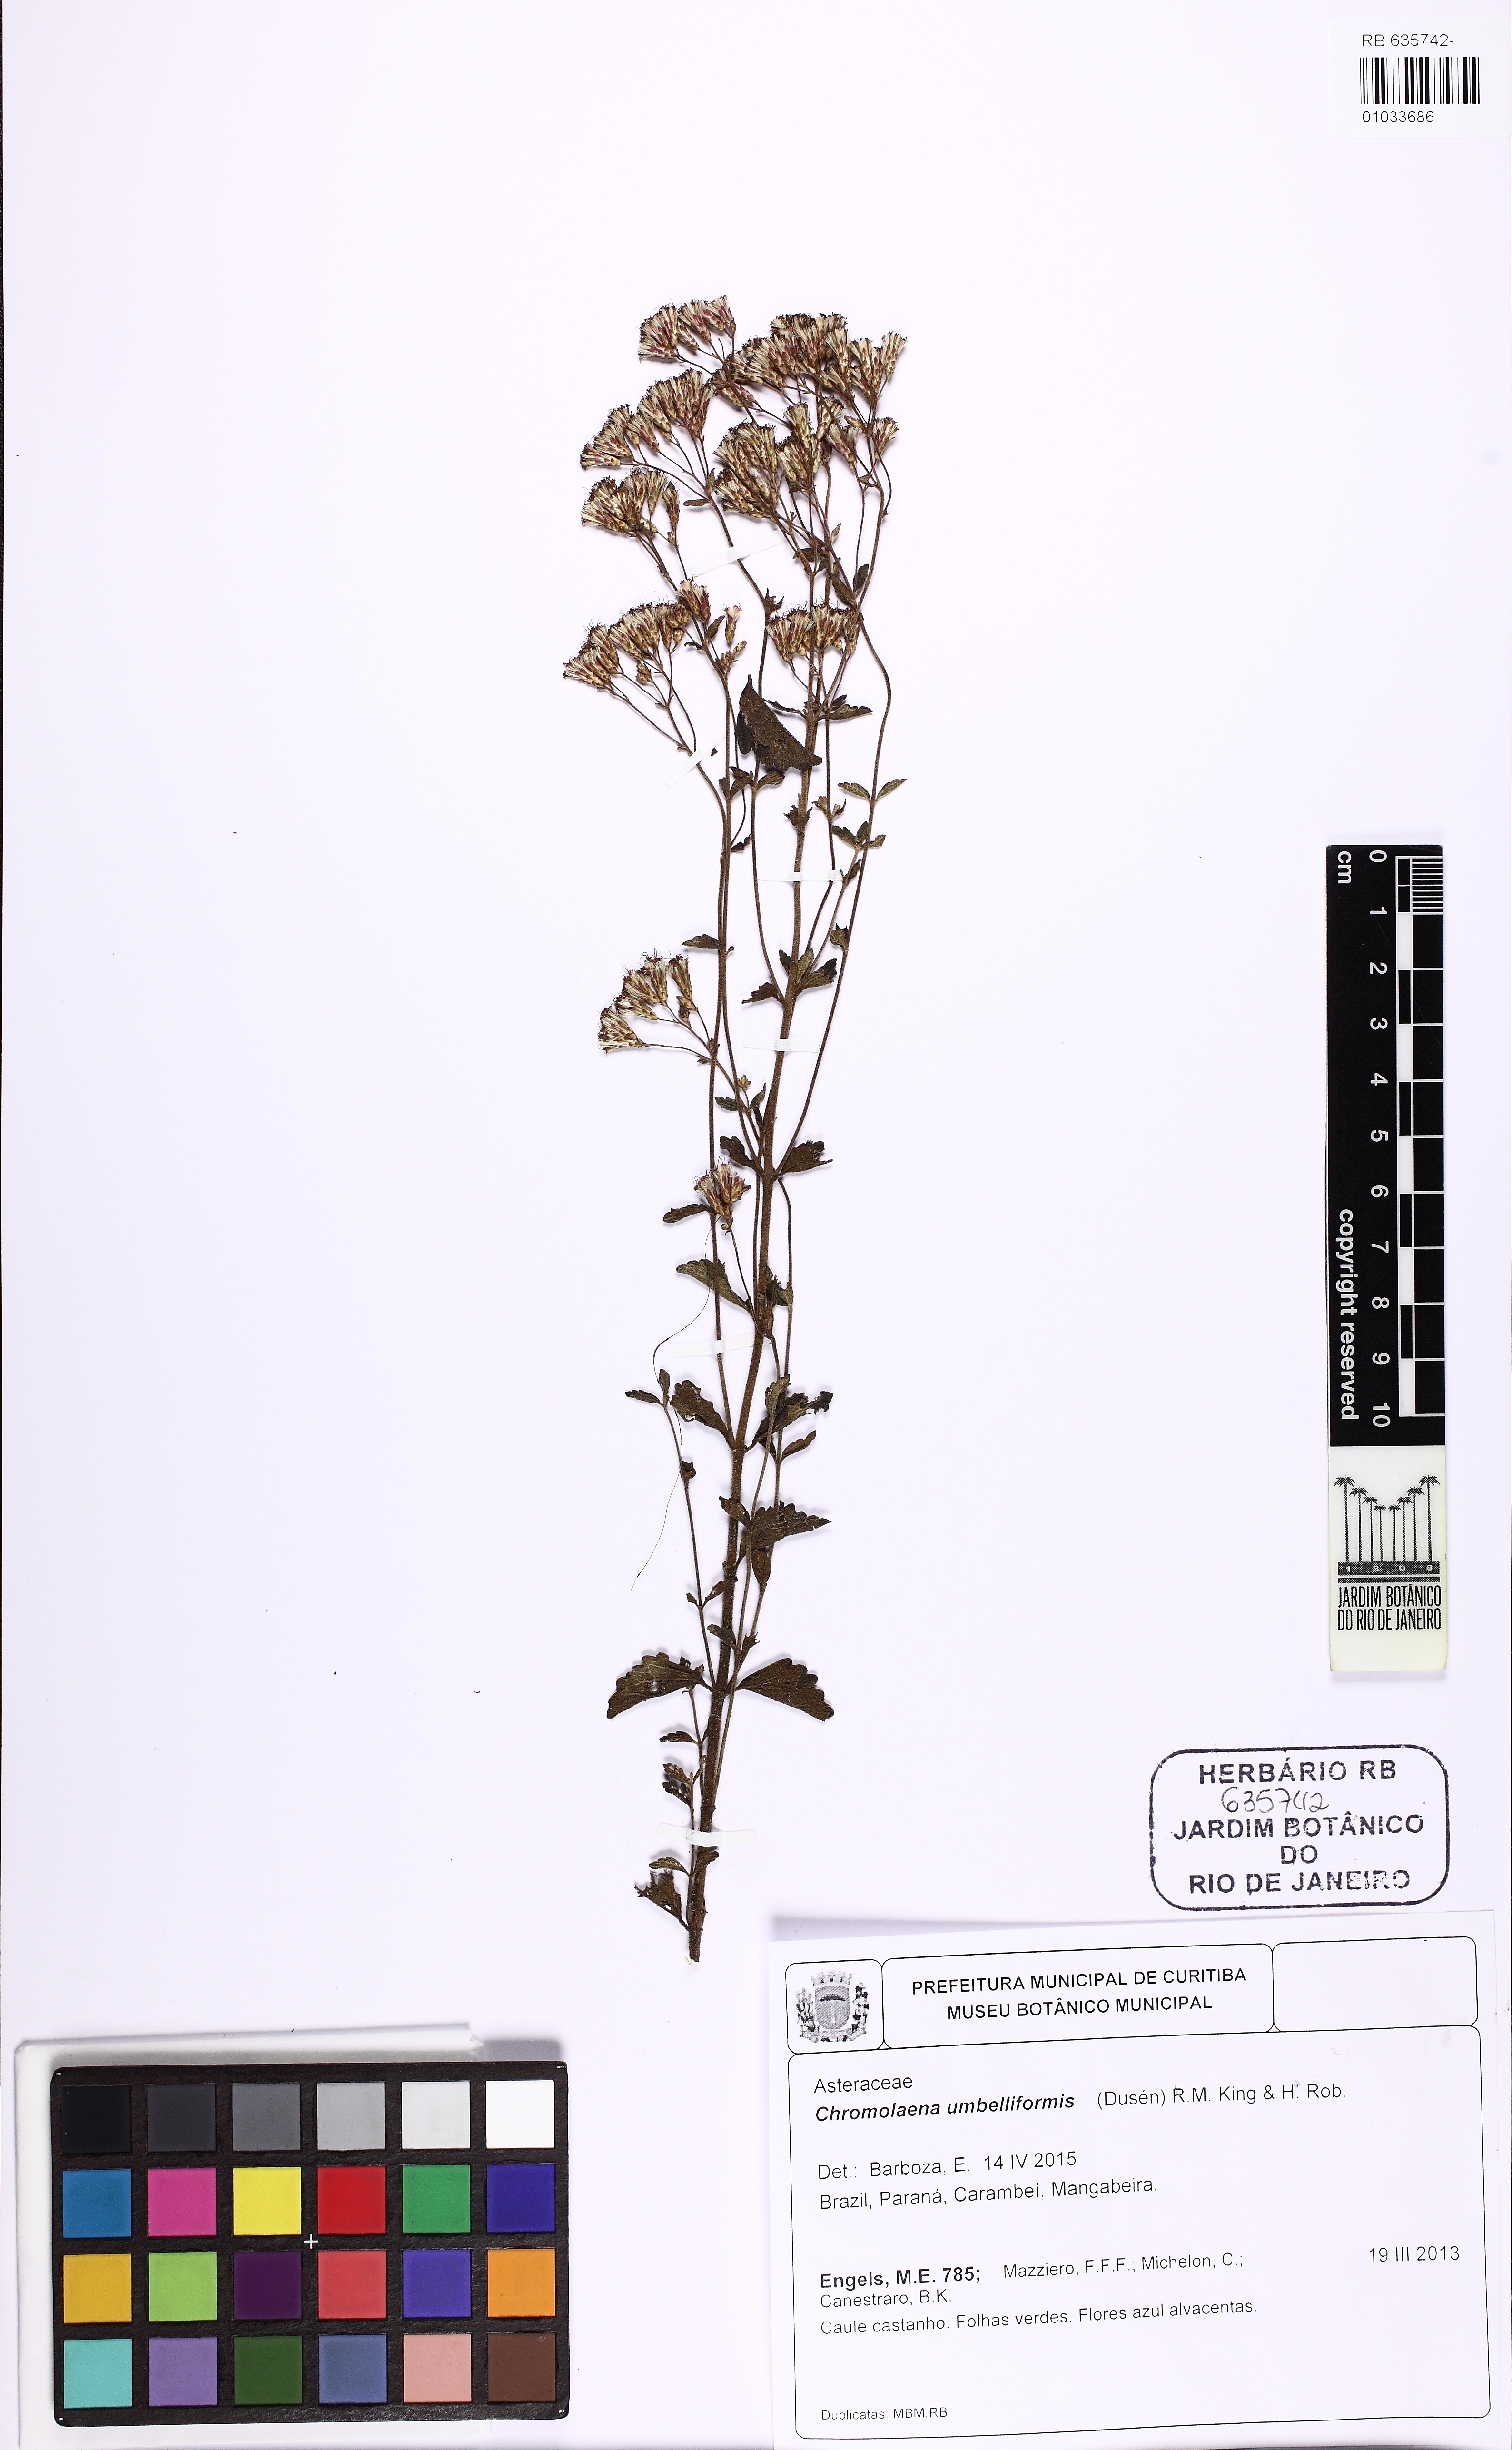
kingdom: Plantae
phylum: Tracheophyta
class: Magnoliopsida
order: Asterales
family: Asteraceae
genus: Chromolaena
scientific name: Chromolaena congesta
